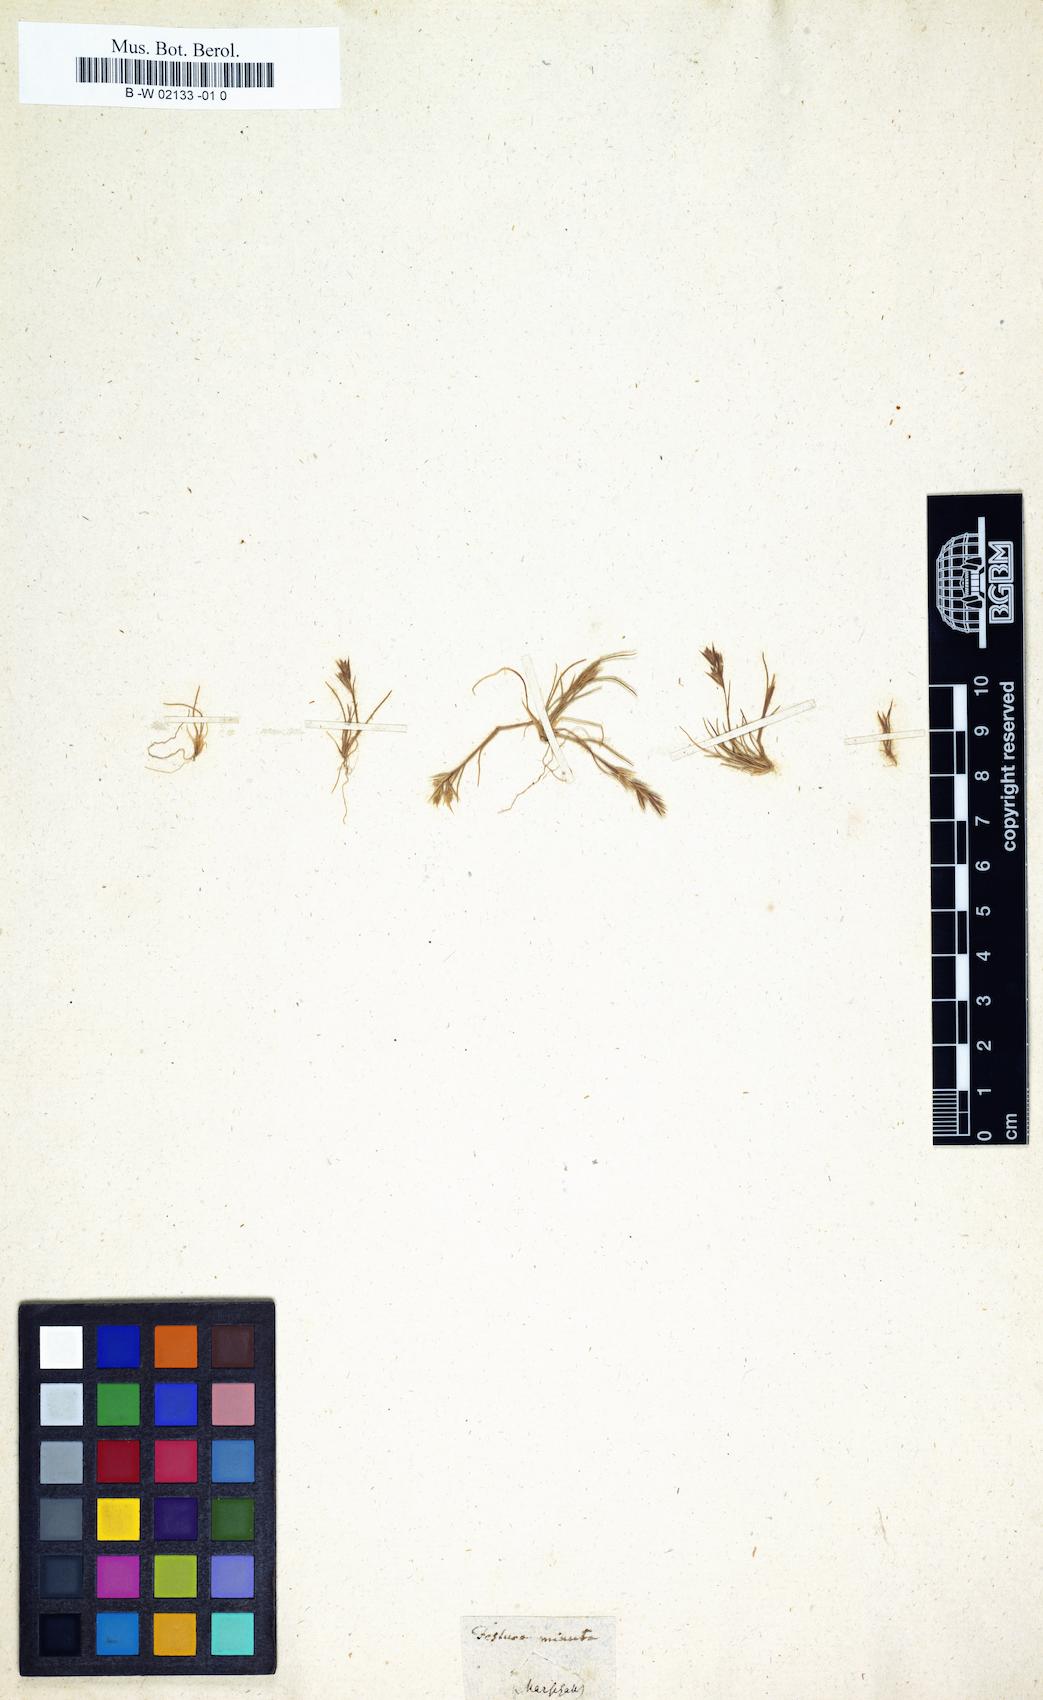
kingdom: Plantae
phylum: Tracheophyta
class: Liliopsida
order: Poales
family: Poaceae
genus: Schismus
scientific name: Schismus barbatus
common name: Kelch-grass
